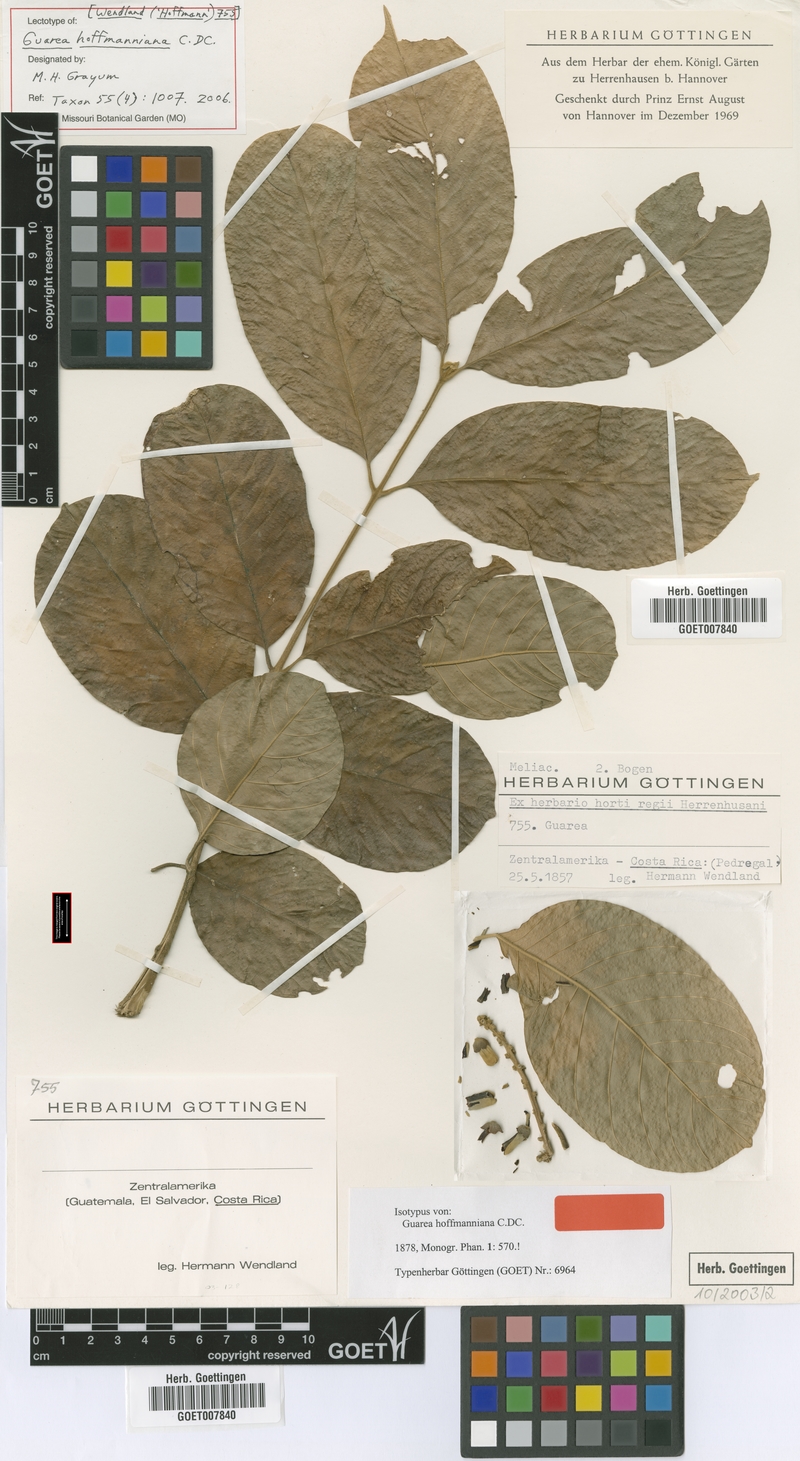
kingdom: Plantae
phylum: Tracheophyta
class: Magnoliopsida
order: Sapindales
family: Meliaceae
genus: Guarea
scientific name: Guarea hoffmanniana
